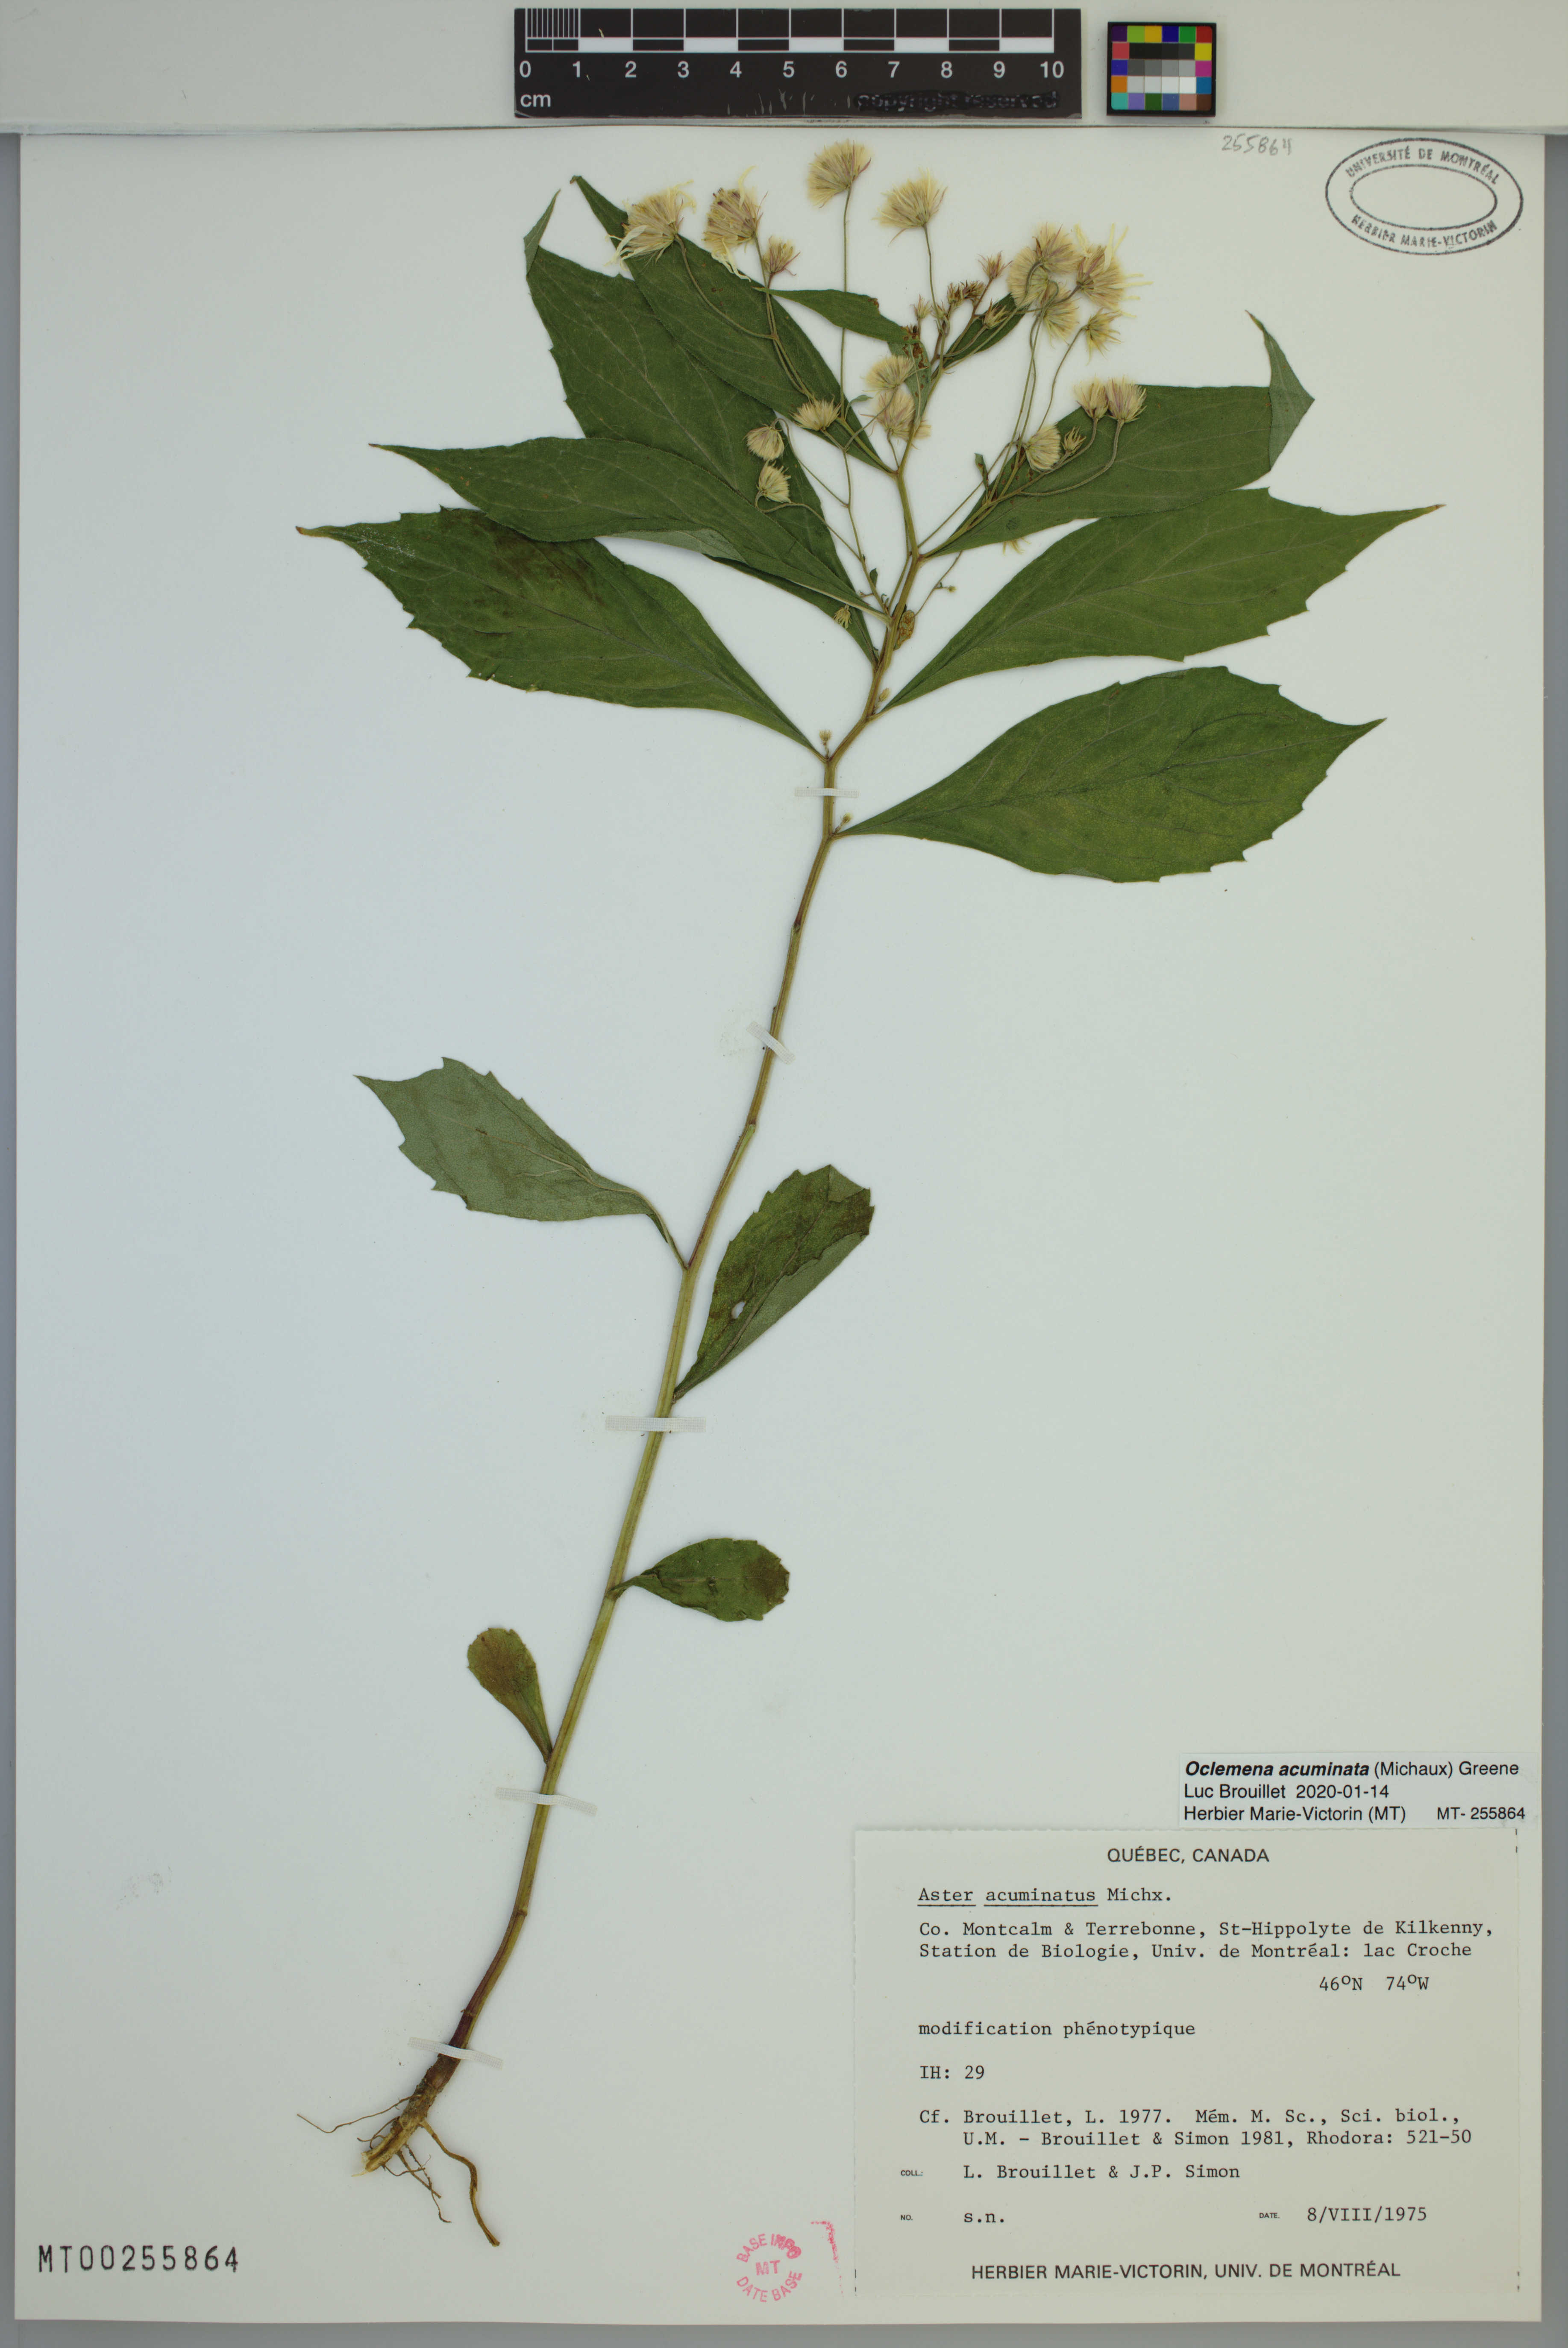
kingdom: Plantae
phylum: Tracheophyta
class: Magnoliopsida
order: Asterales
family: Asteraceae
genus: Oclemena
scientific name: Oclemena acuminata
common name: Mountain aster
